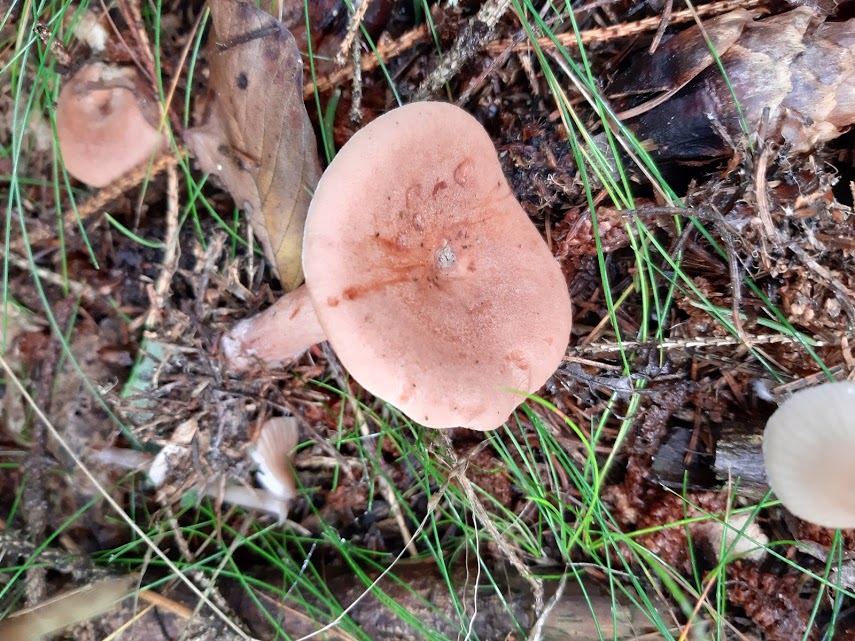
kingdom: Fungi
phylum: Basidiomycota
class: Agaricomycetes
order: Russulales
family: Russulaceae
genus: Lactarius
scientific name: Lactarius quietus
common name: ege-mælkehat
